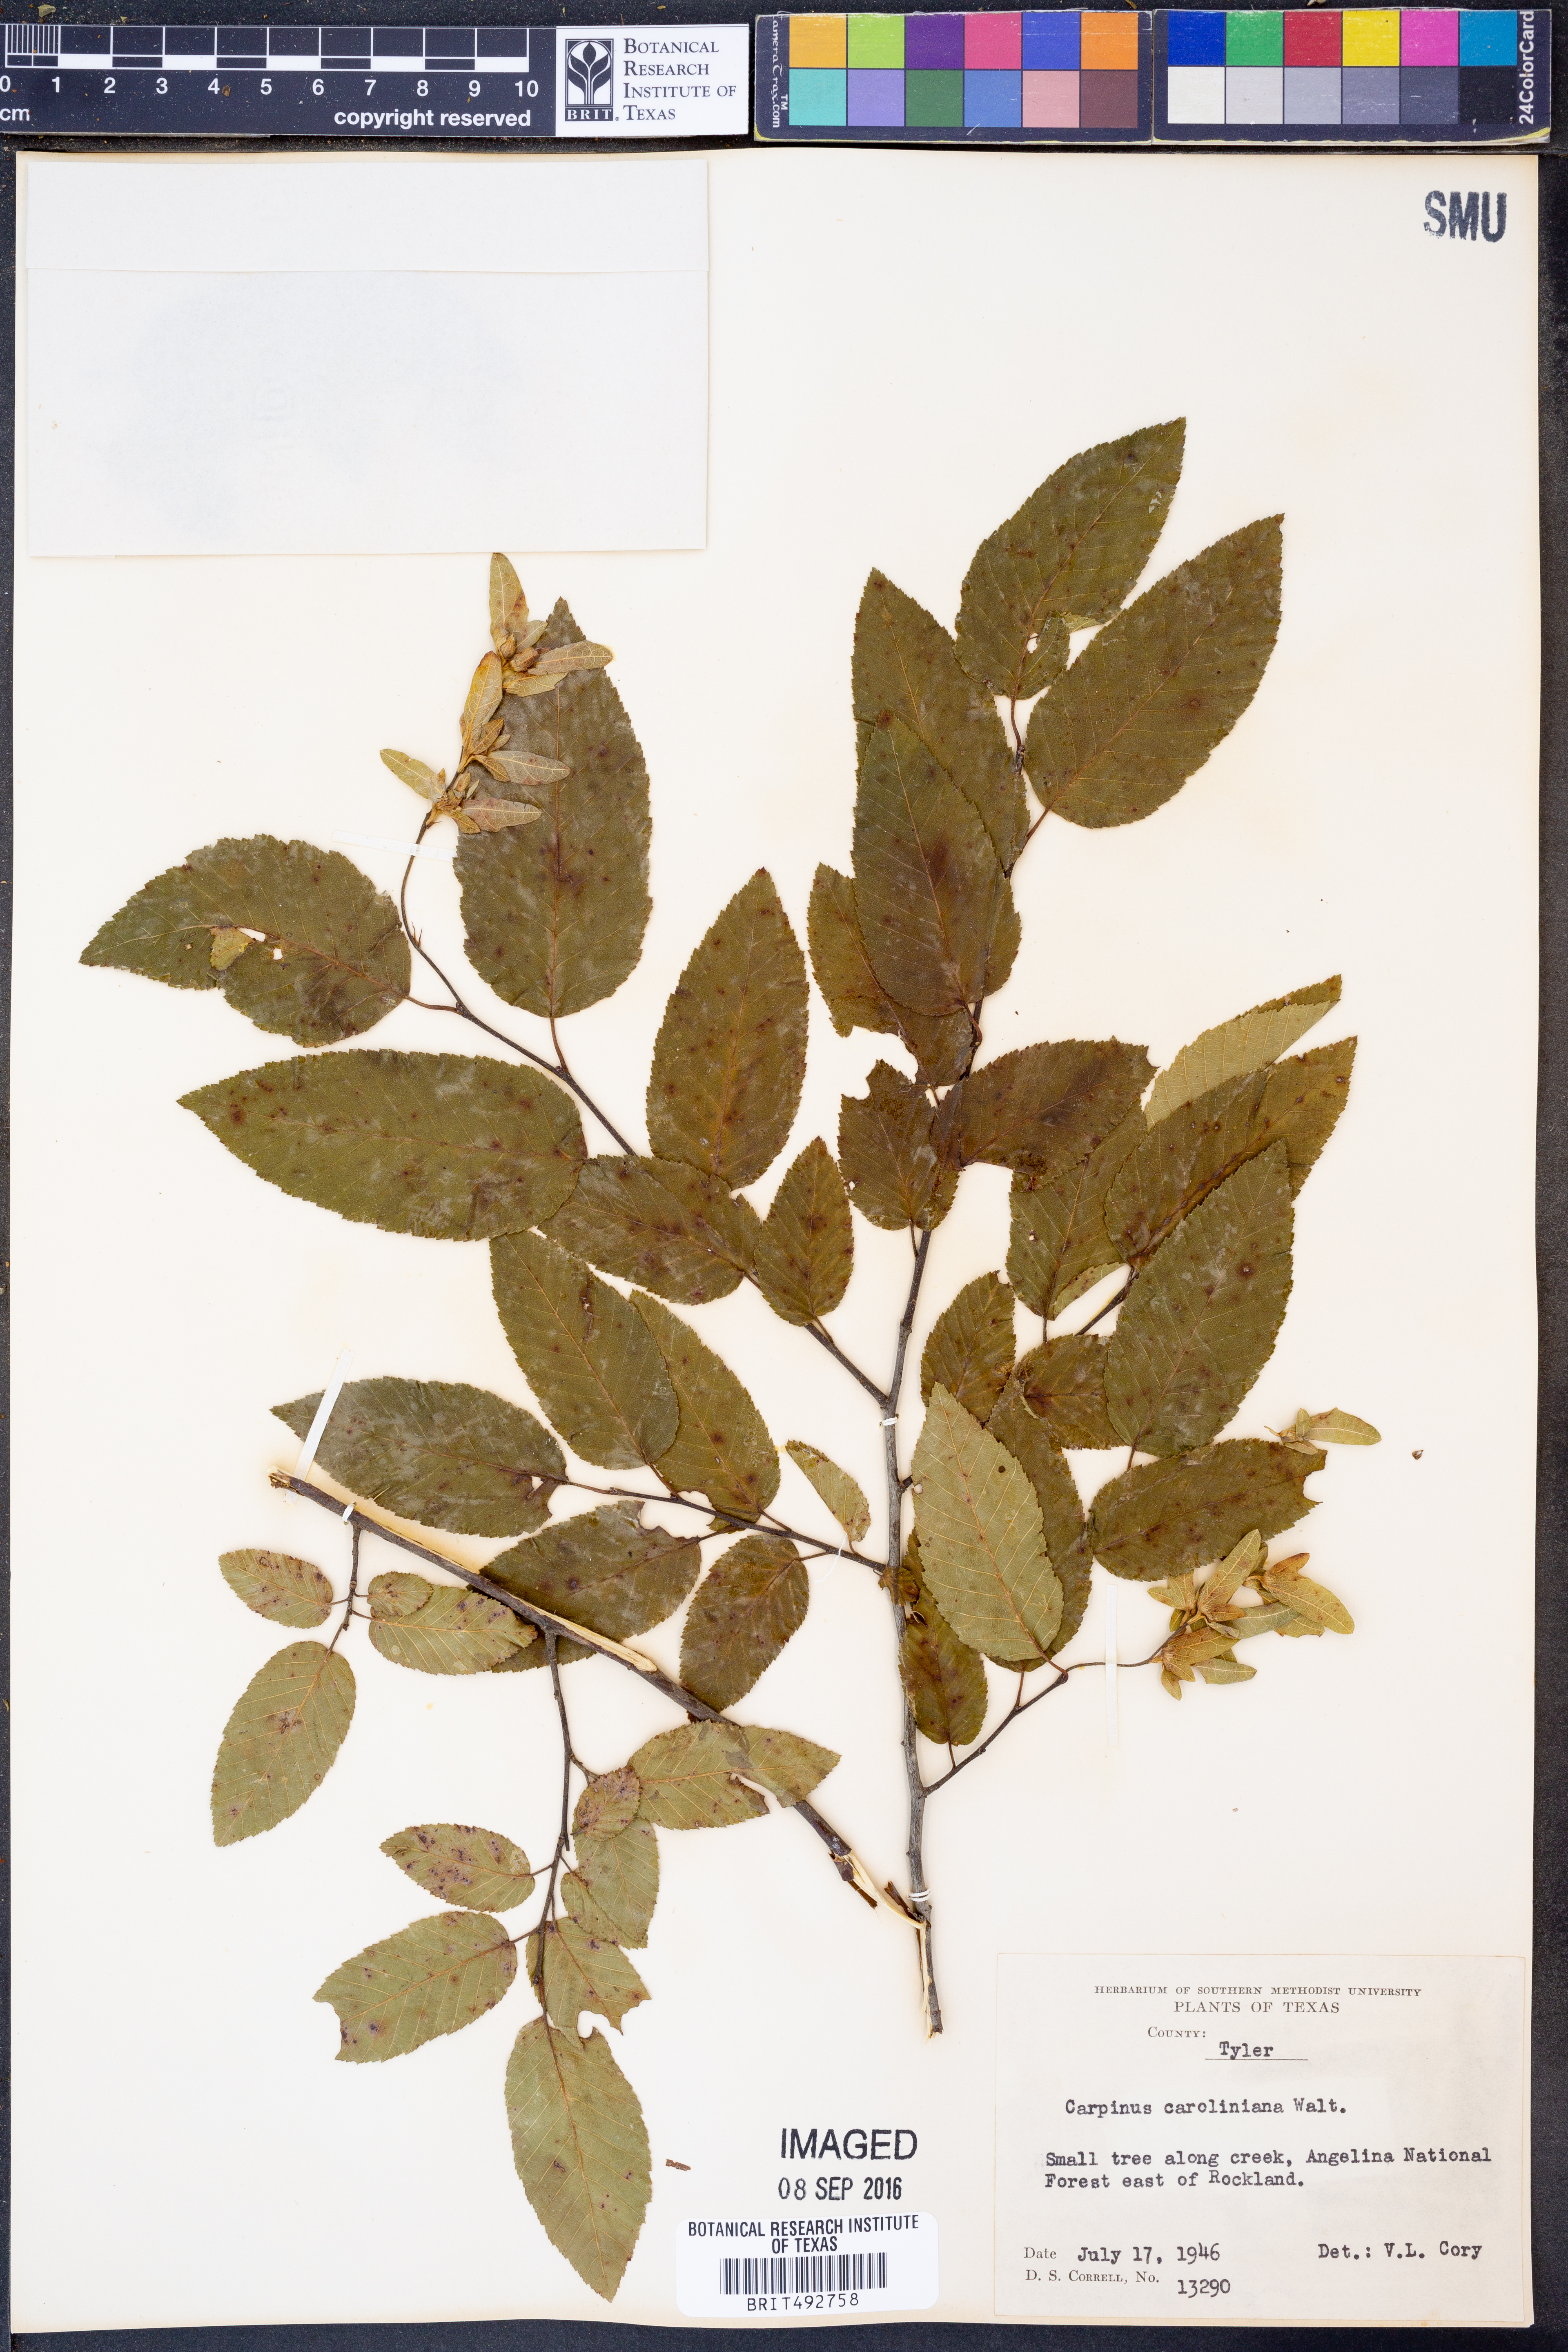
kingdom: Plantae
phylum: Tracheophyta
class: Magnoliopsida
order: Fagales
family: Betulaceae
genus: Carpinus
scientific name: Carpinus caroliniana
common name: American hornbeam
